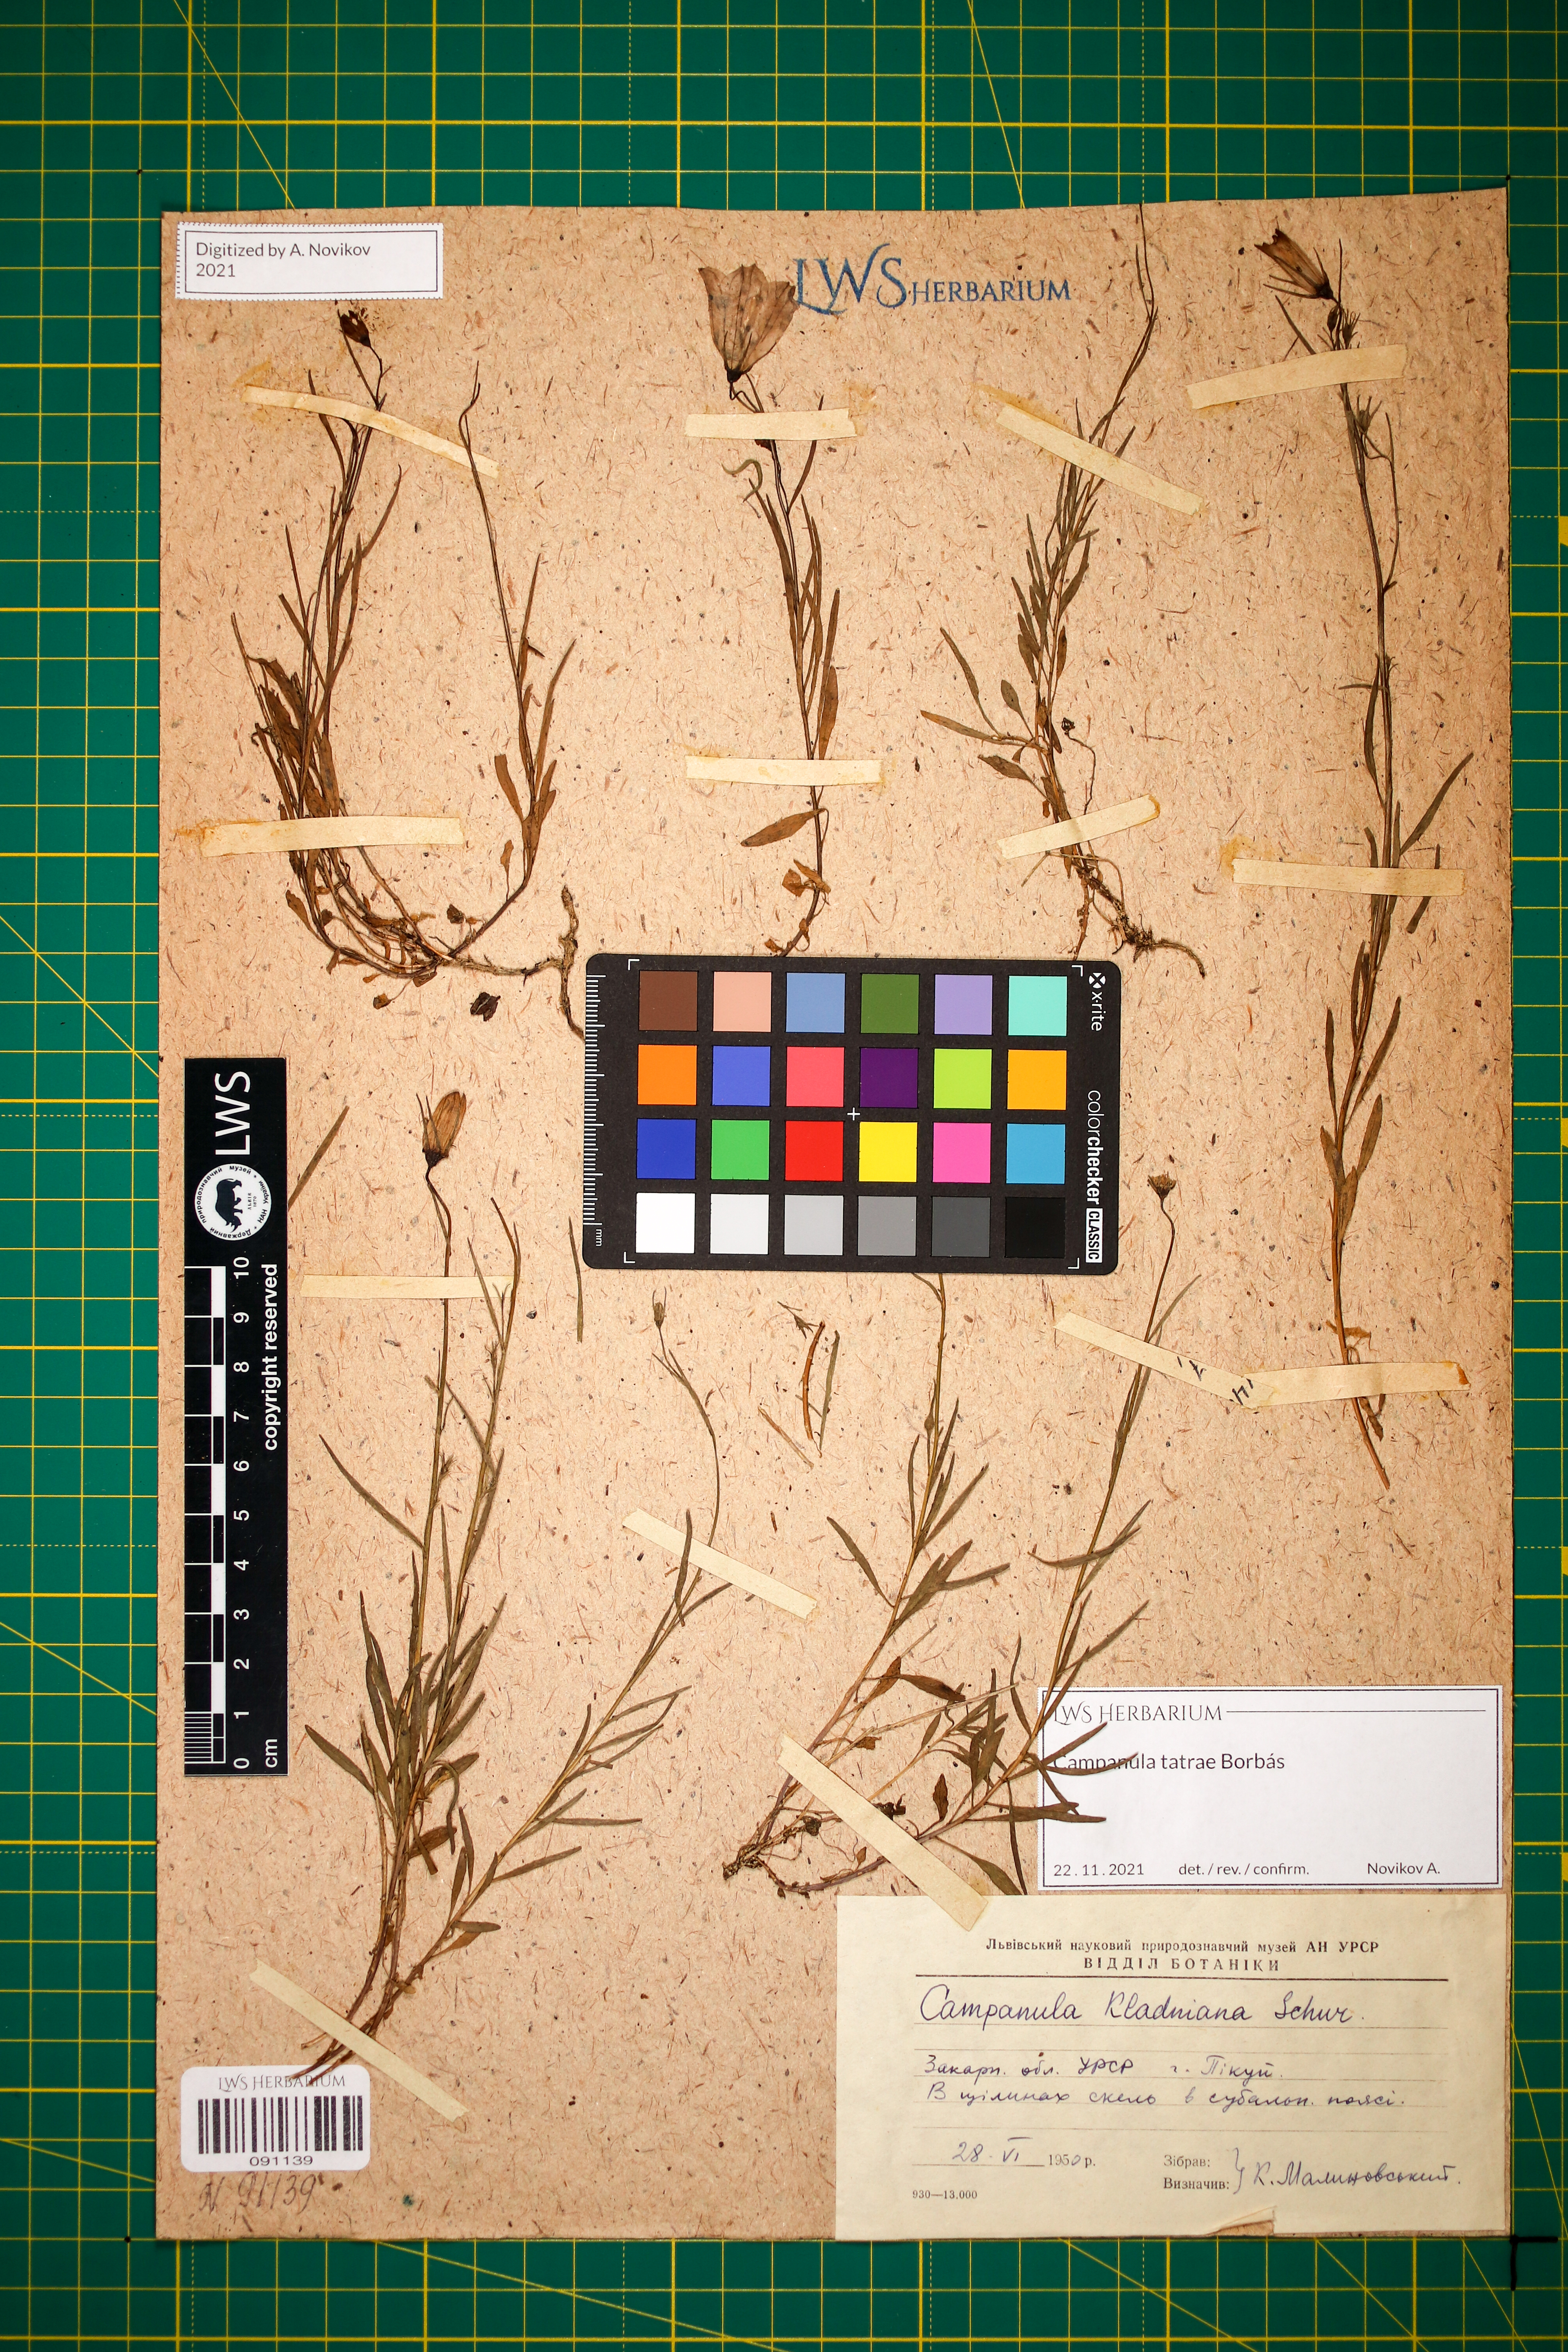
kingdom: Plantae
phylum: Tracheophyta
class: Magnoliopsida
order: Asterales
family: Campanulaceae
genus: Campanula
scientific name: Campanula kladniana
